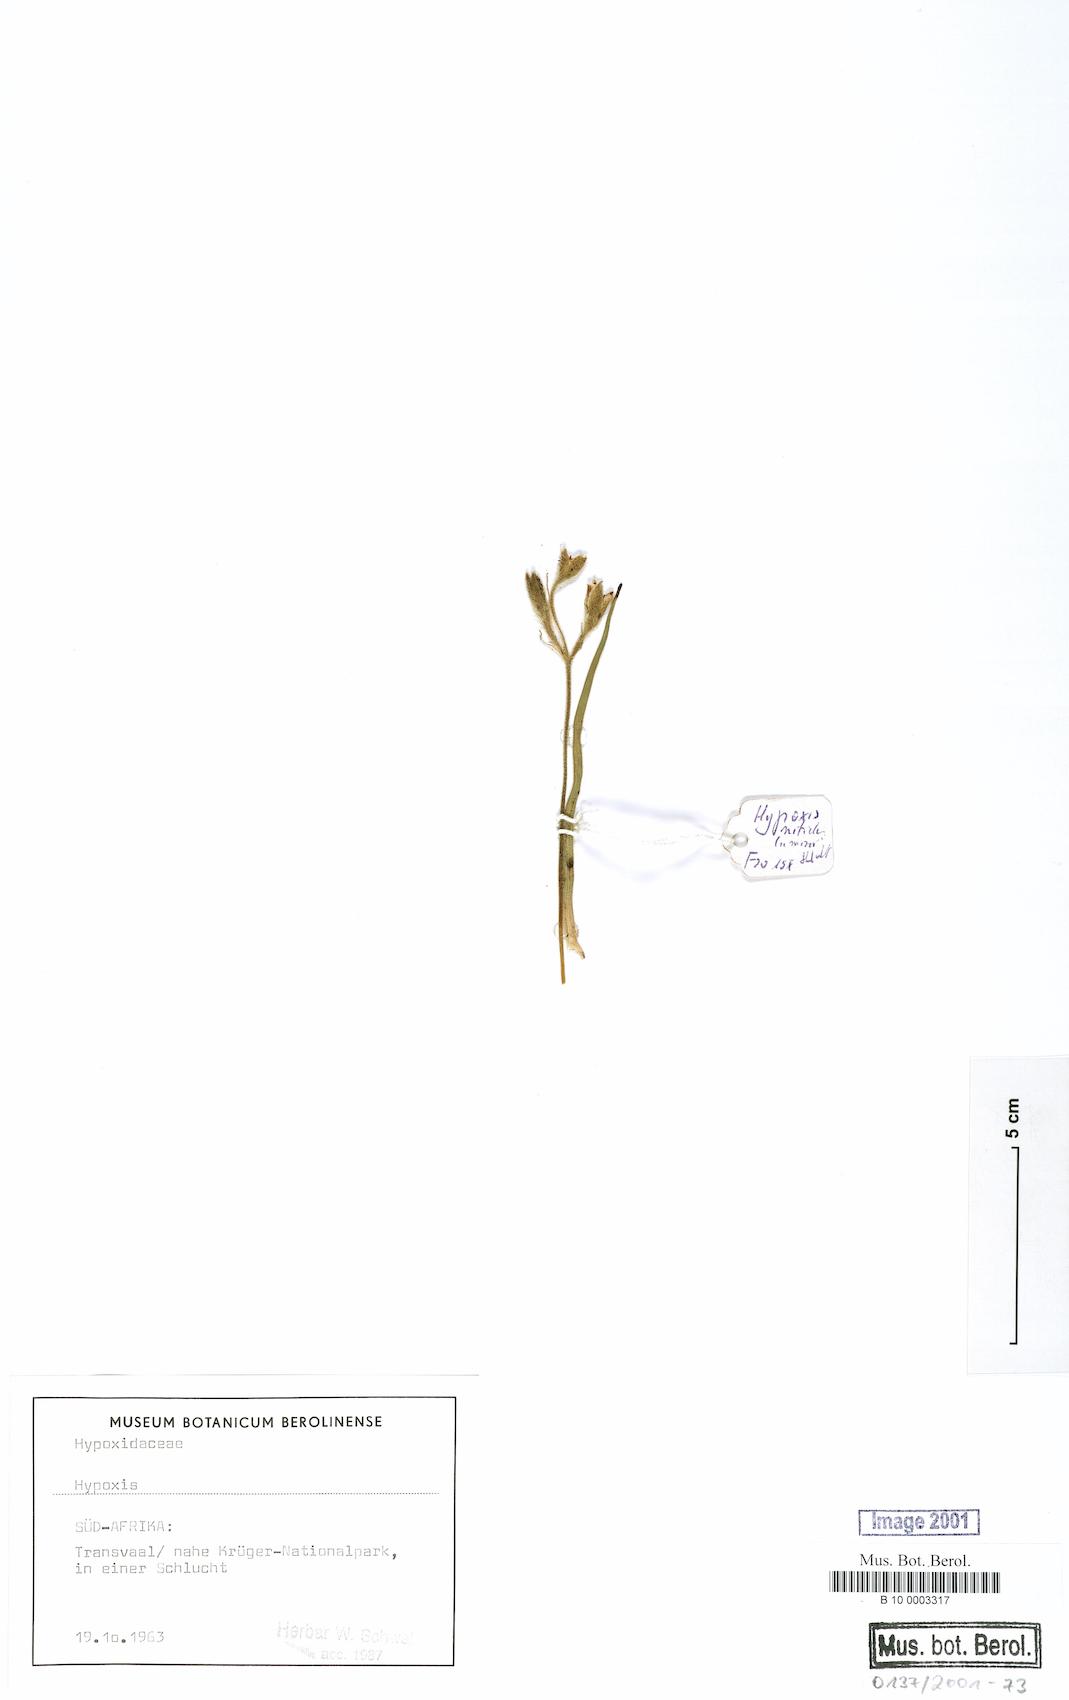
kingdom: Plantae
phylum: Tracheophyta
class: Liliopsida
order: Asparagales
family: Hypoxidaceae
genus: Hypoxis
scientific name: Hypoxis
